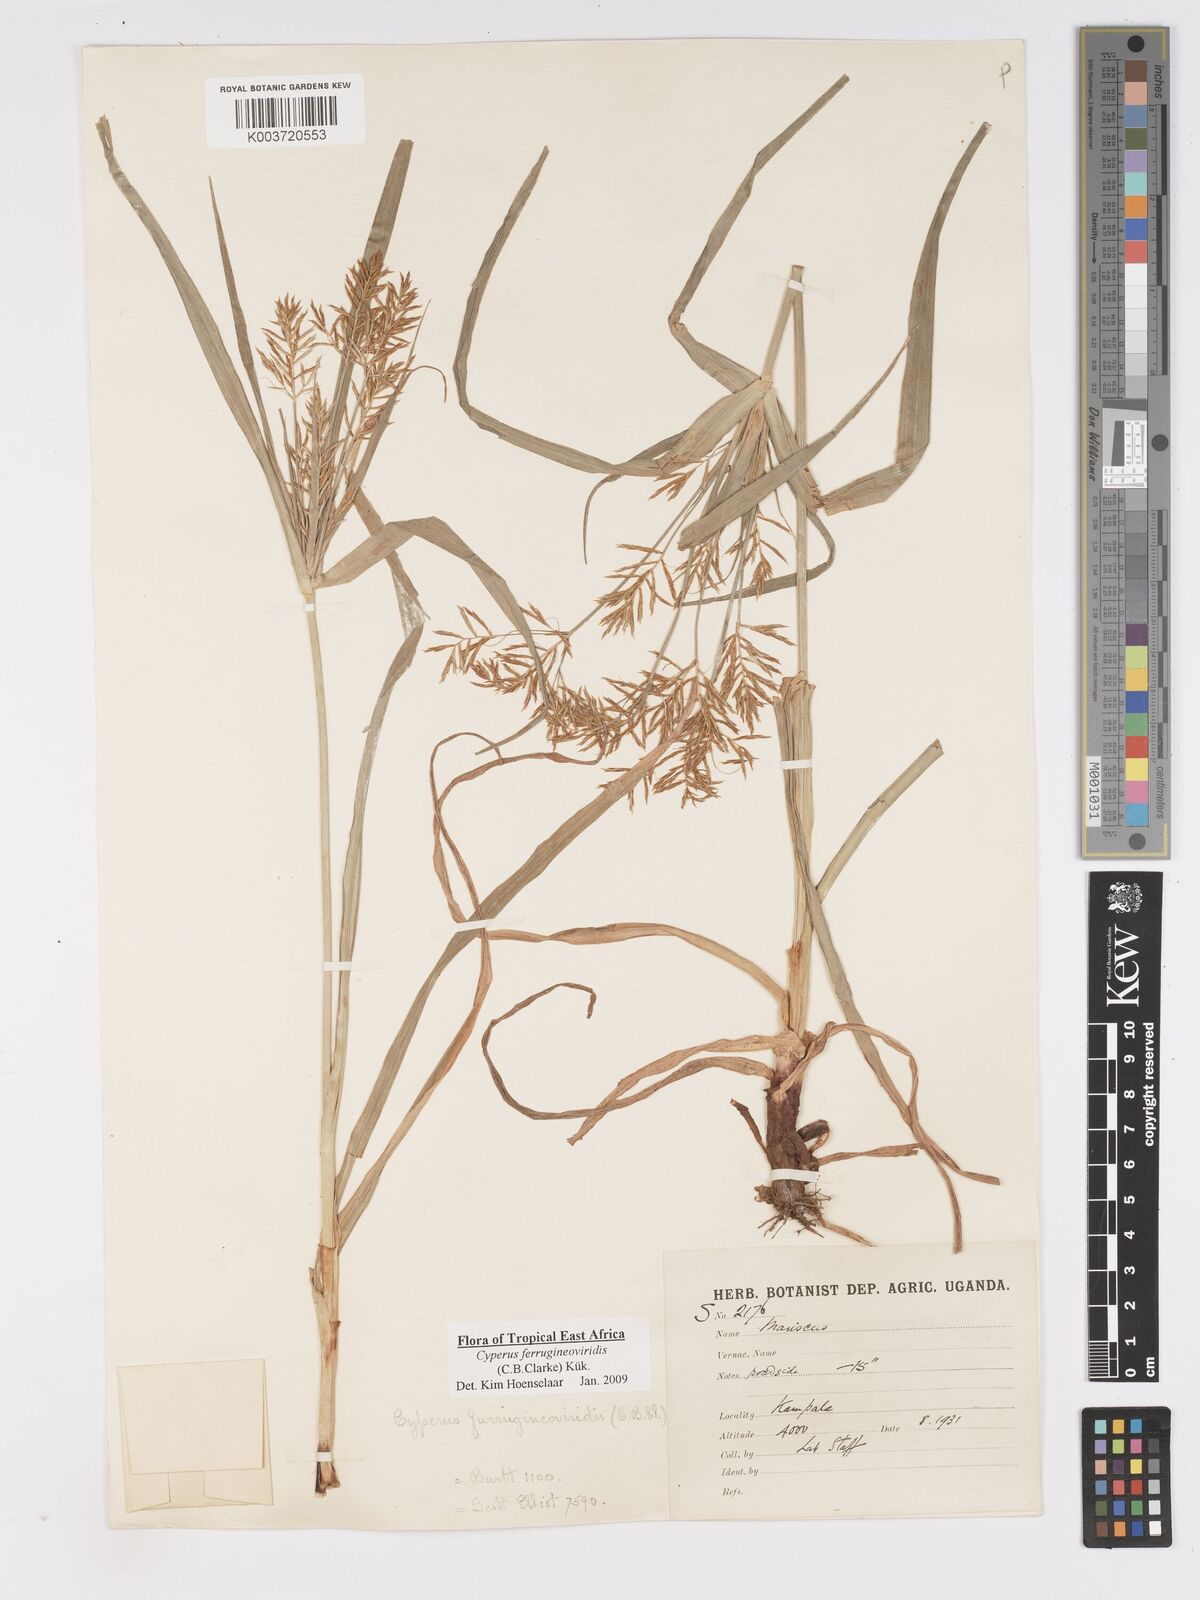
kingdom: Plantae
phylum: Tracheophyta
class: Liliopsida
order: Poales
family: Cyperaceae
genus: Cyperus
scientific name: Cyperus ferrugineoviridis
